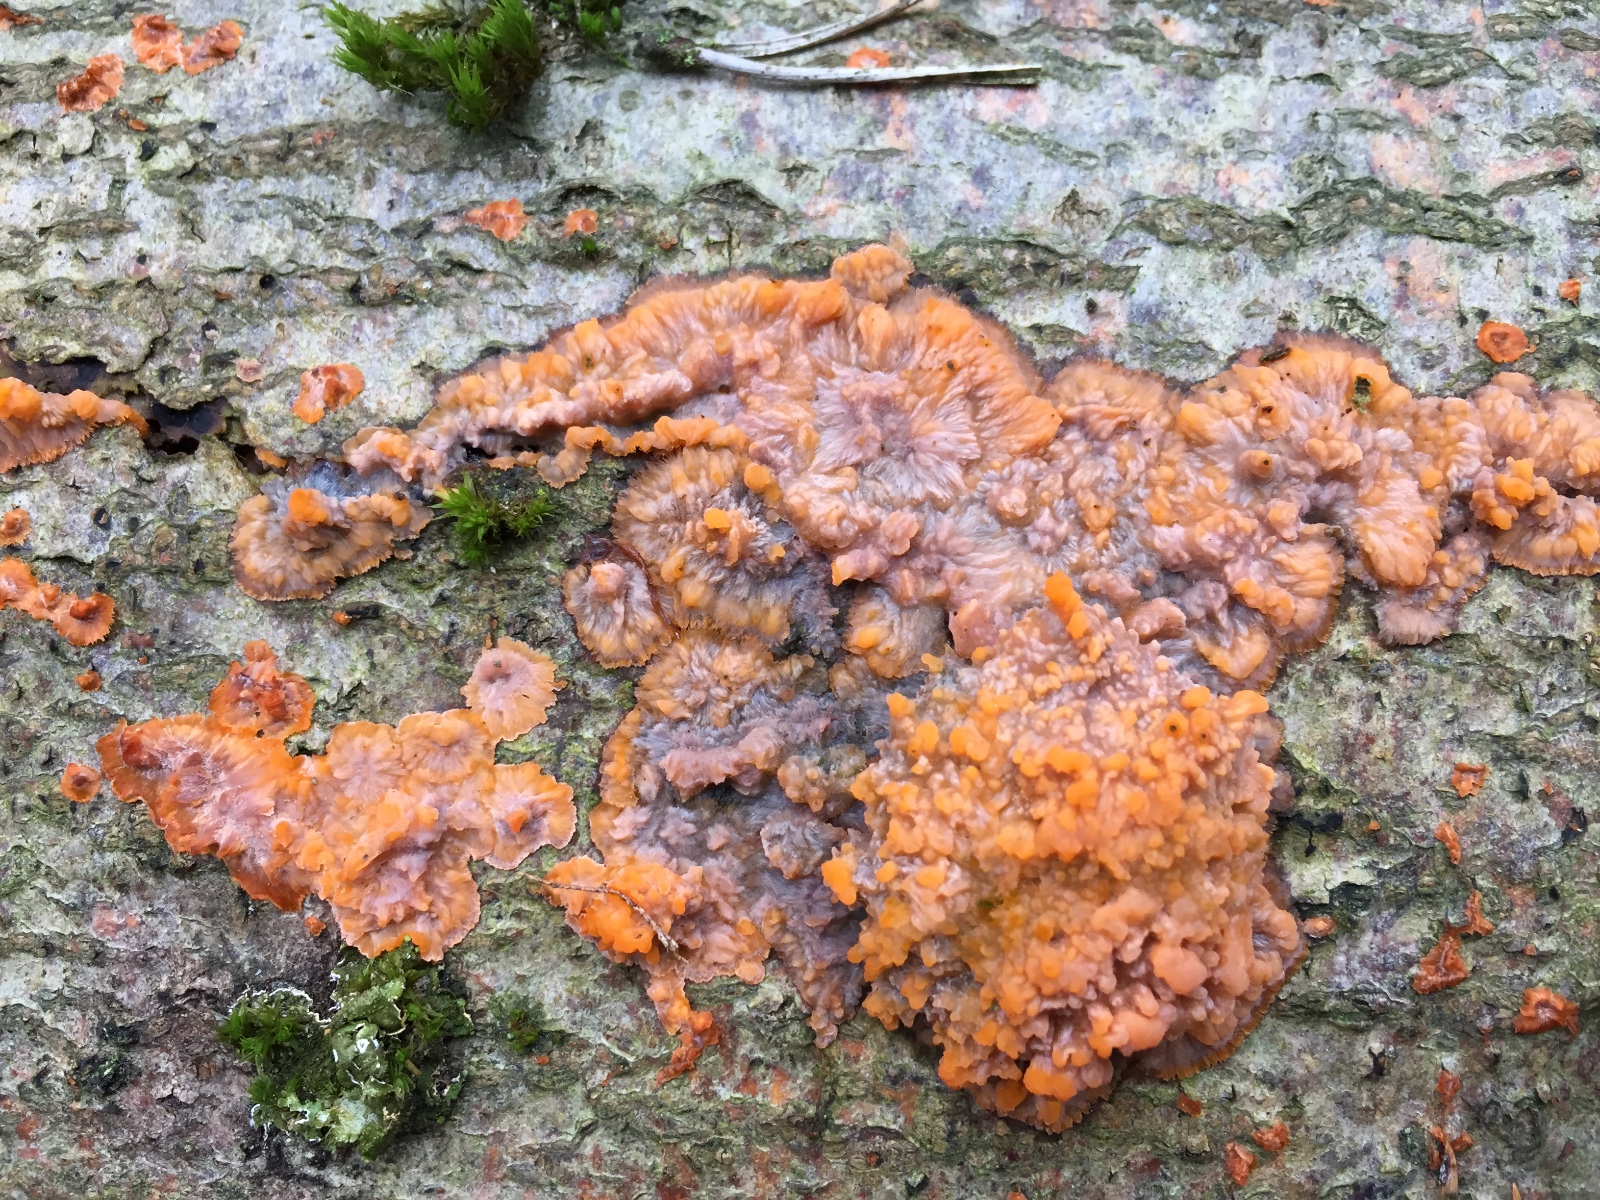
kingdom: Fungi
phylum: Basidiomycota
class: Agaricomycetes
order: Polyporales
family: Meruliaceae
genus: Phlebia
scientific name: Phlebia radiata
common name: stråle-åresvamp
